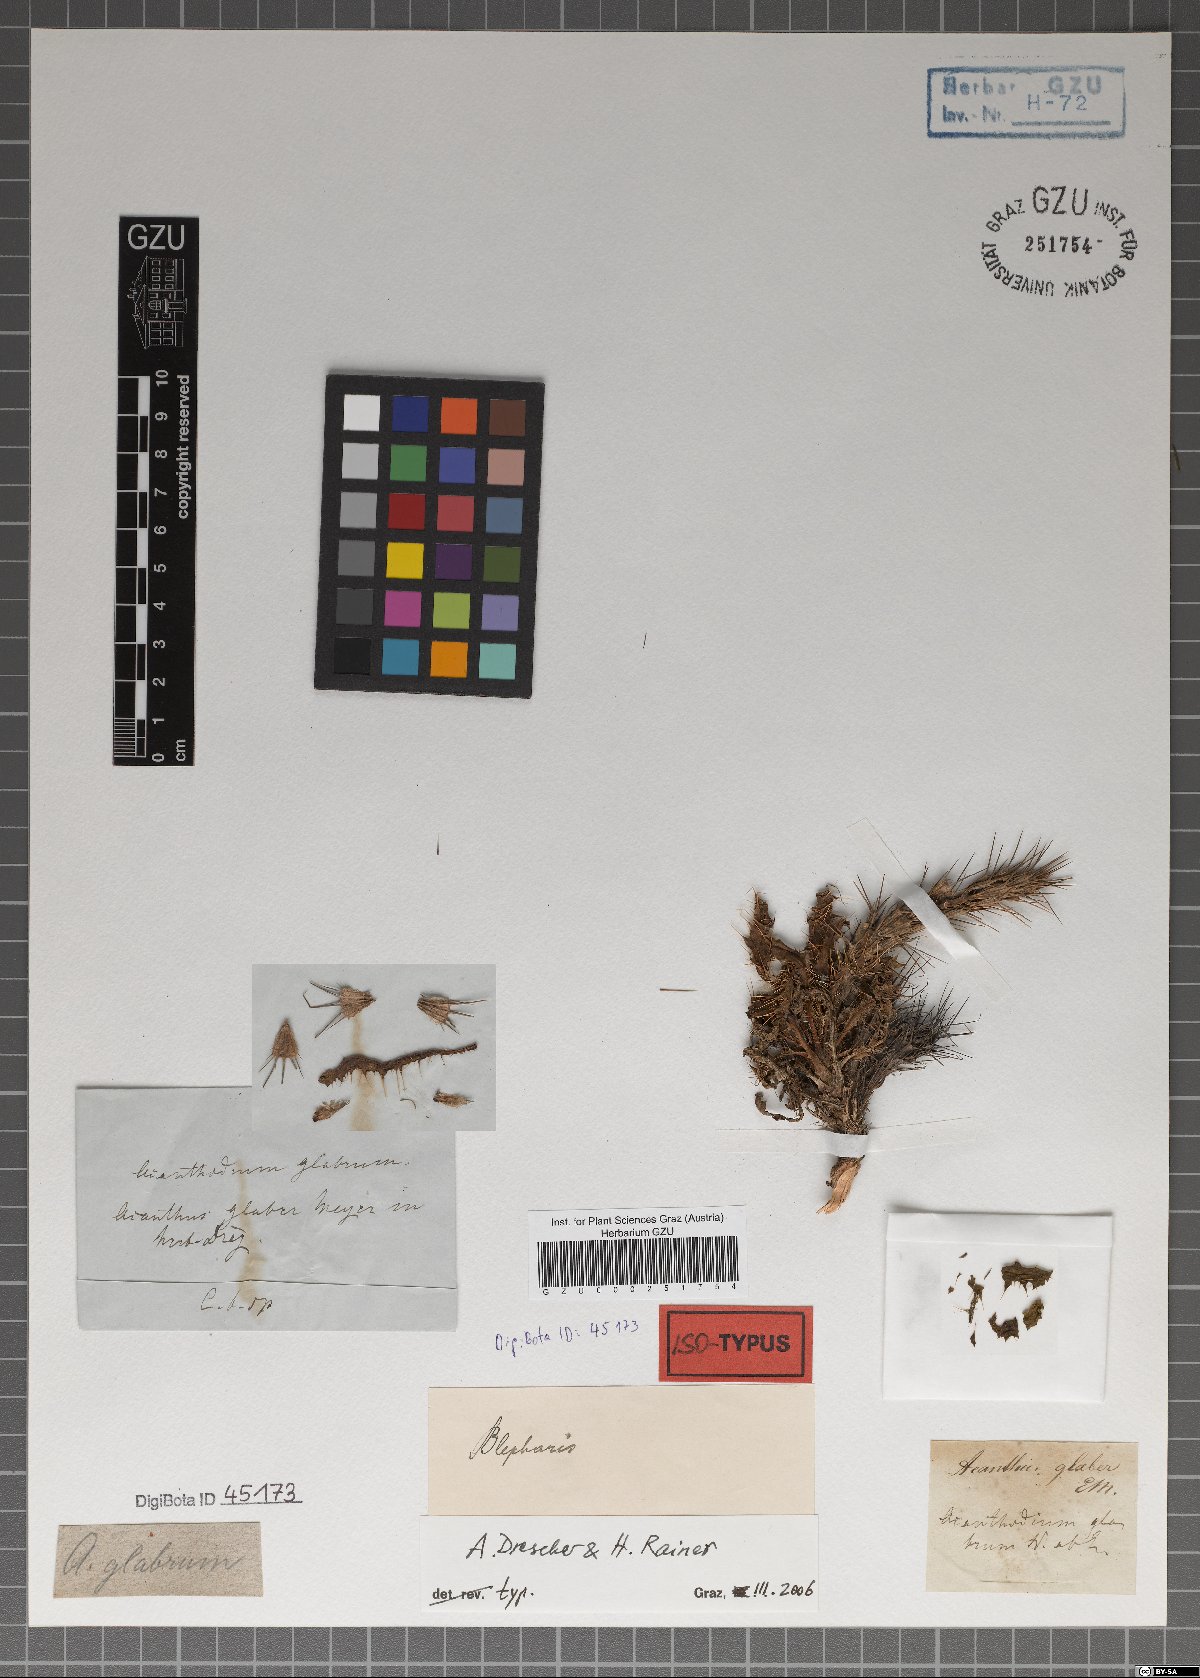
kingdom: Plantae
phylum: Tracheophyta
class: Magnoliopsida
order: Lamiales
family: Acanthaceae
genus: Acanthopsis
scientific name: Acanthopsis glabra
